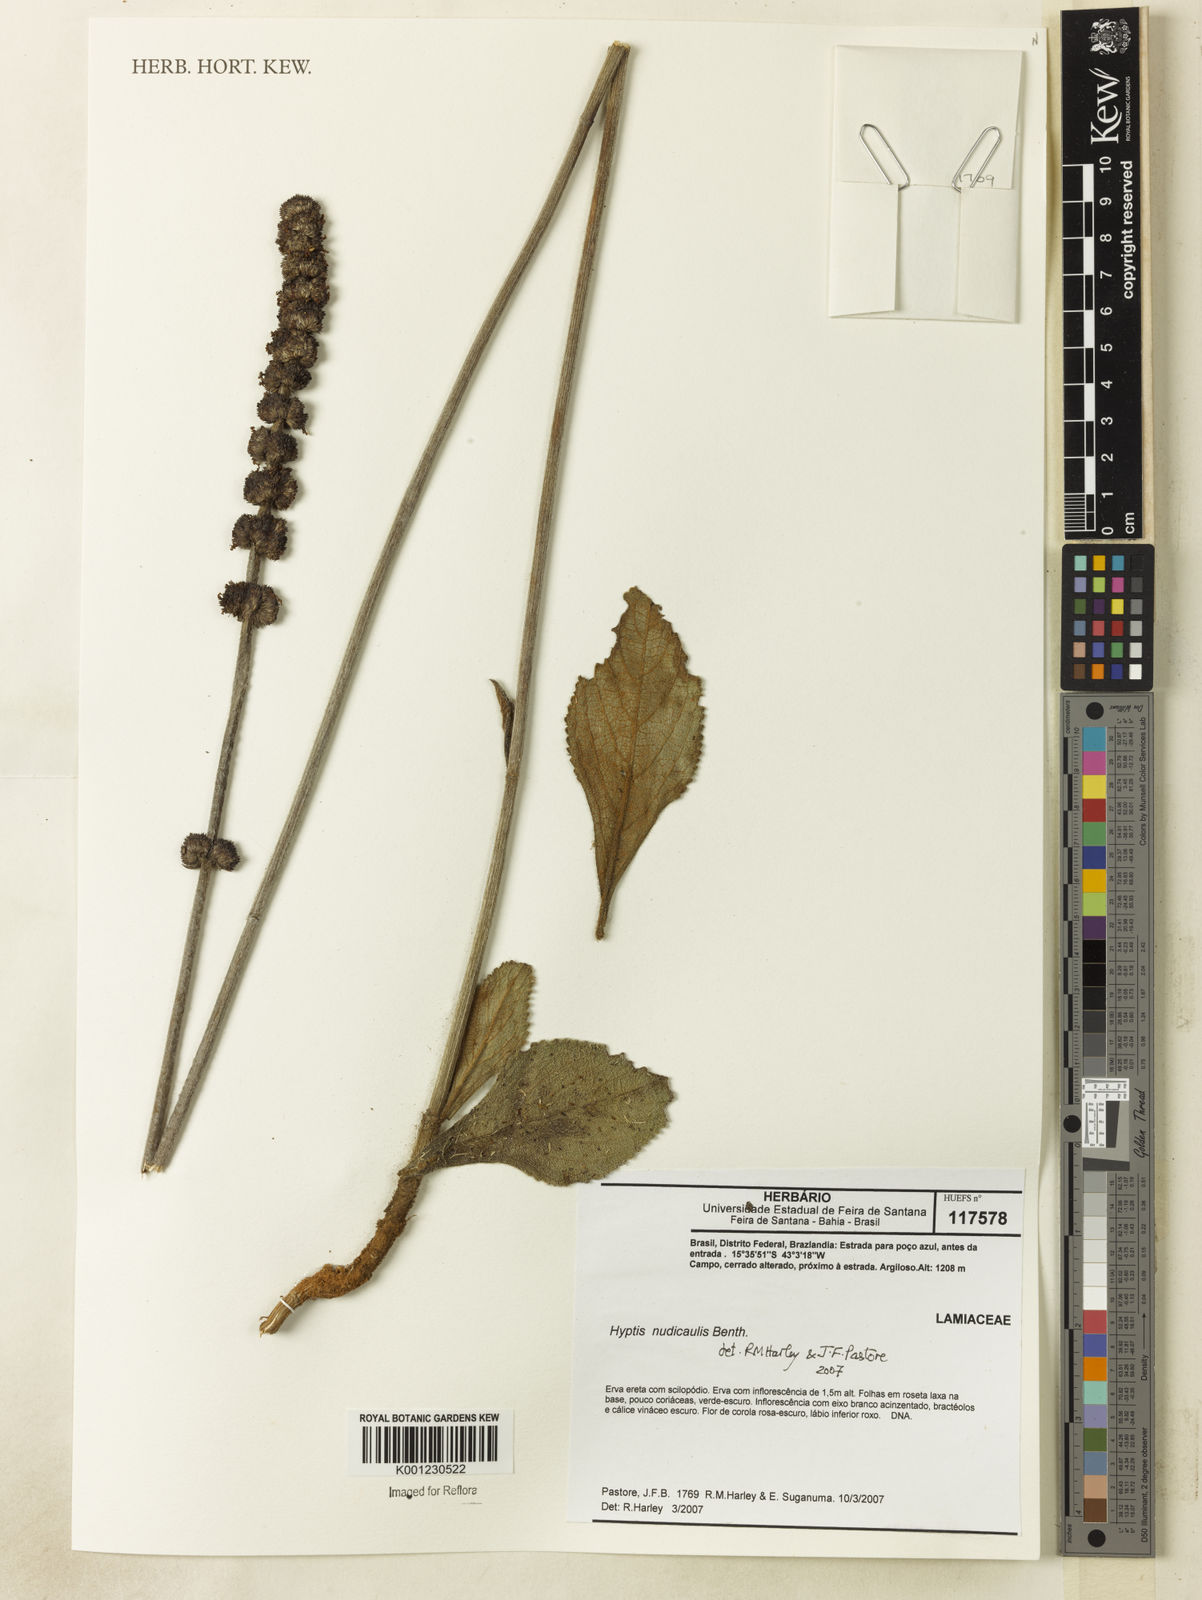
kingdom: Plantae
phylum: Tracheophyta
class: Magnoliopsida
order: Lamiales
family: Lamiaceae
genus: Hyptis
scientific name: Hyptis nudicaulis
